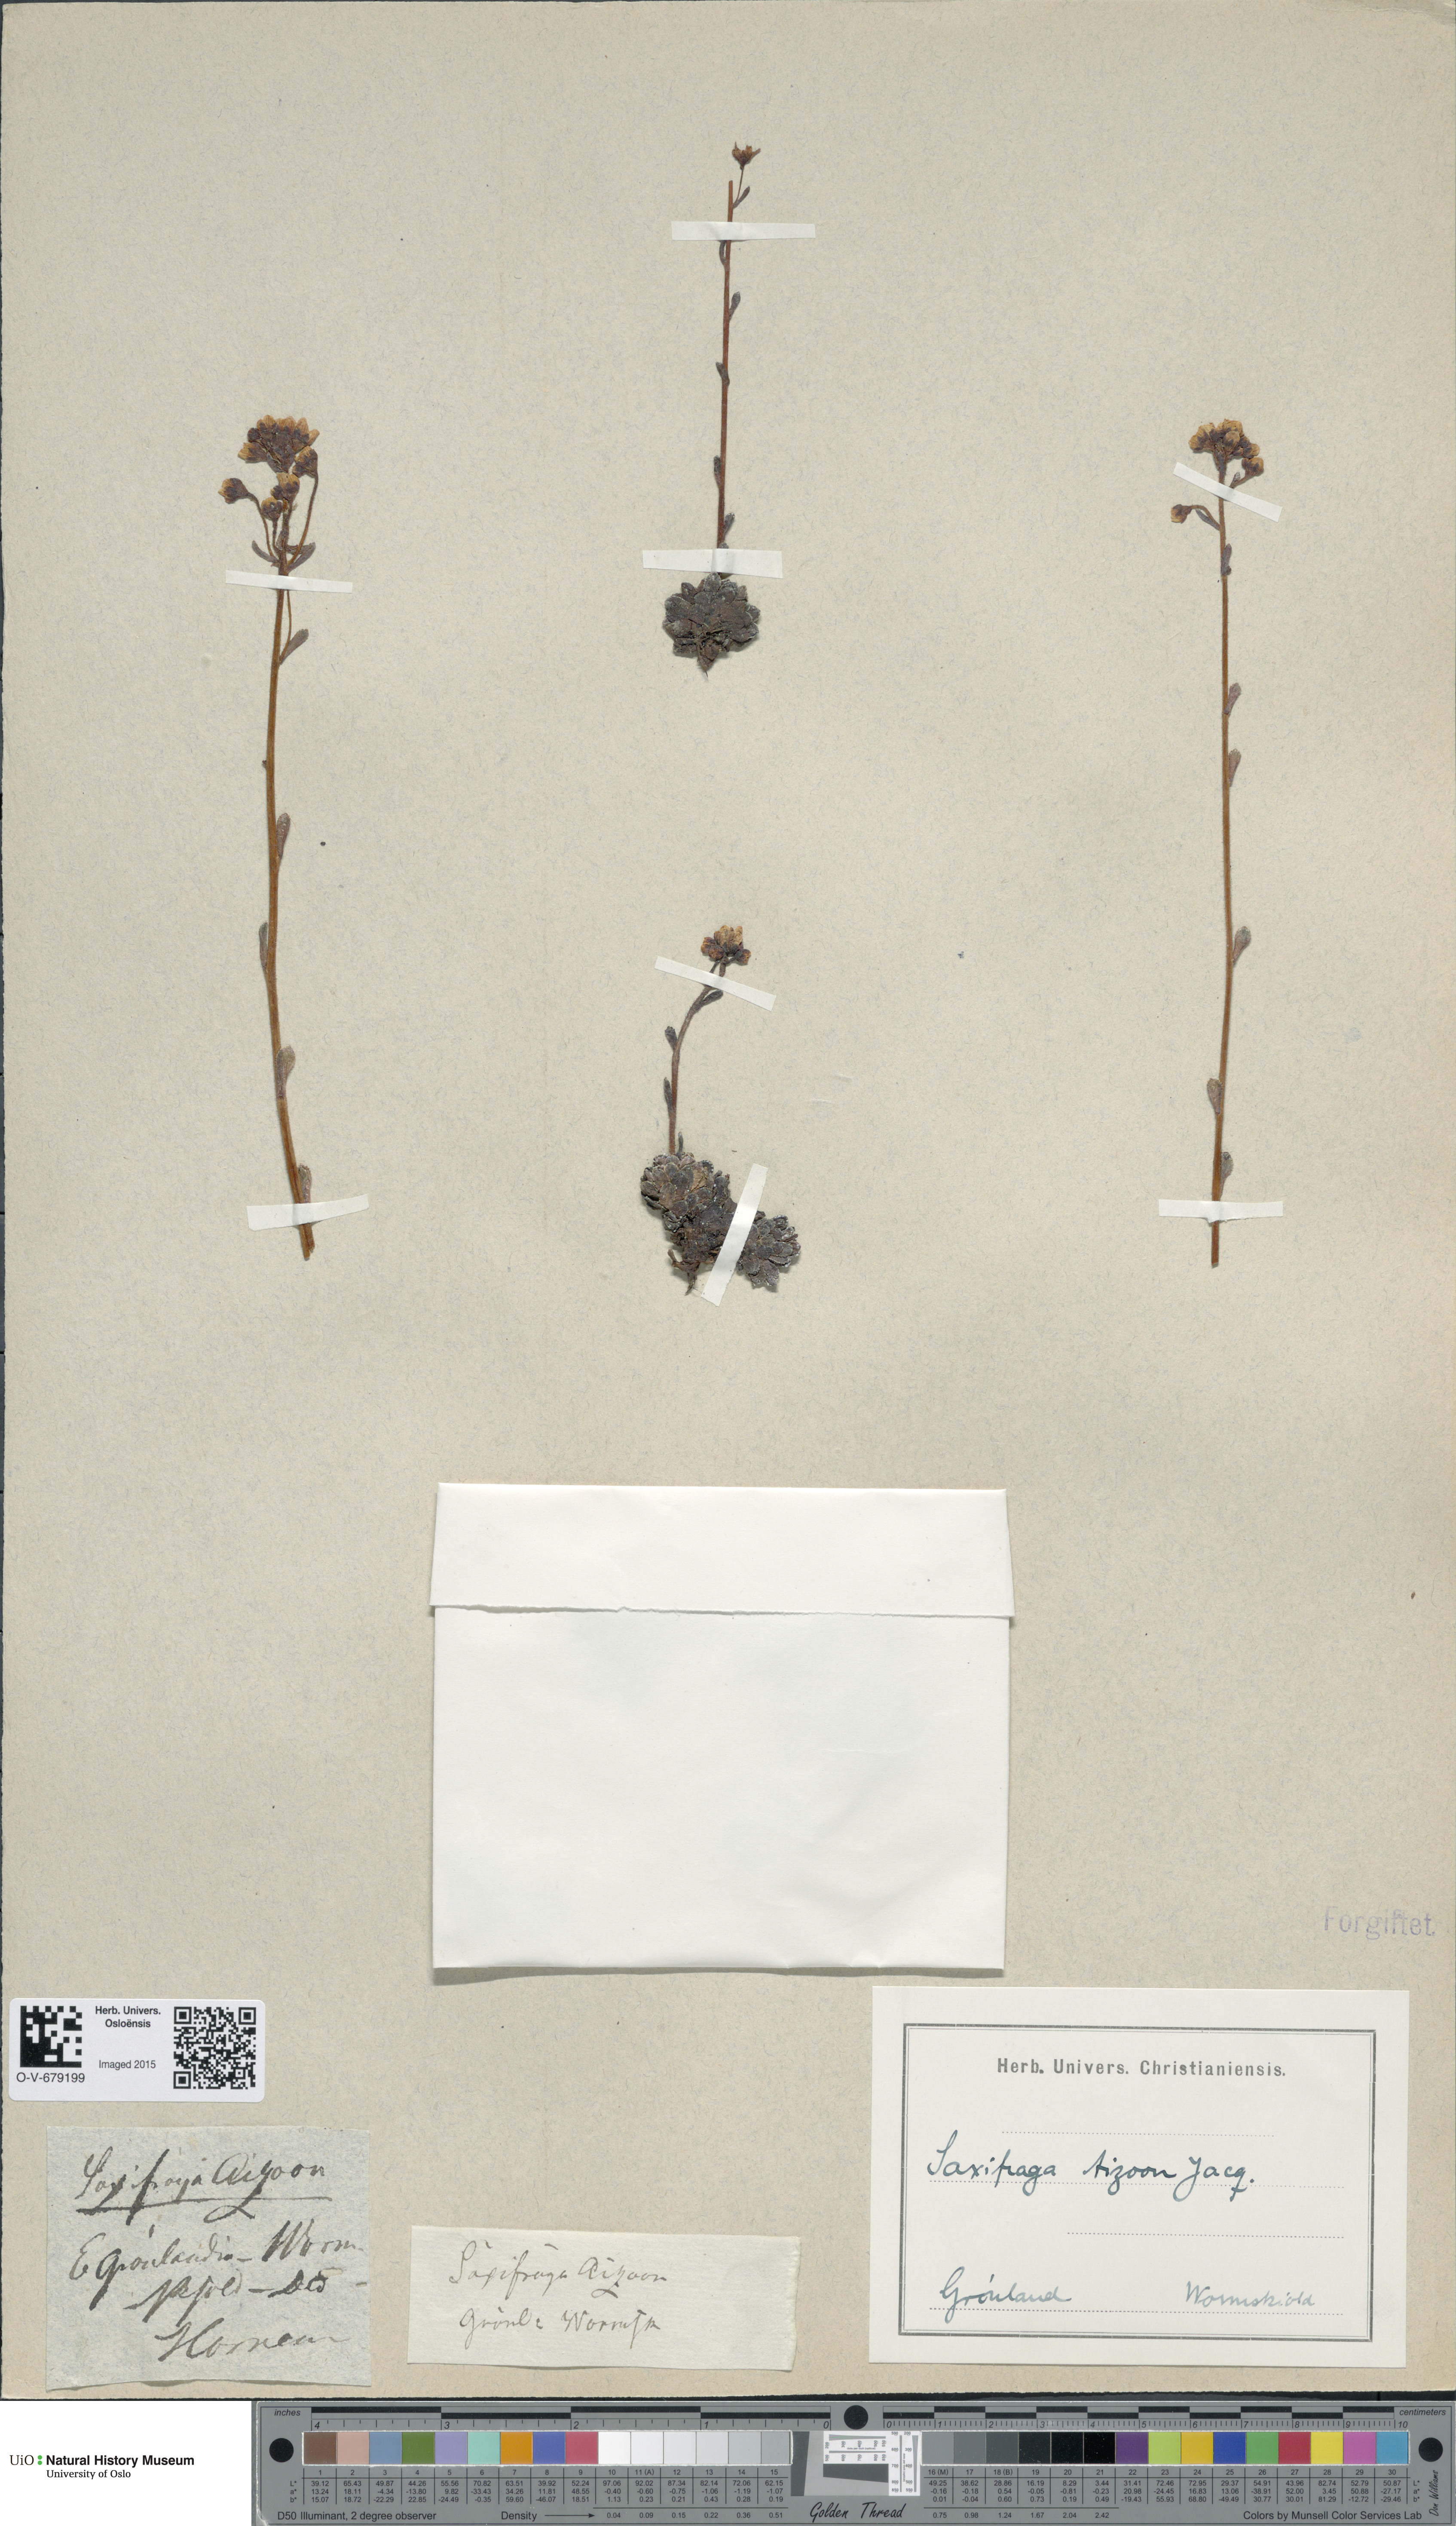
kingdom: Plantae
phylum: Tracheophyta
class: Magnoliopsida
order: Saxifragales
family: Saxifragaceae
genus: Saxifraga
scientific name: Saxifraga paniculata
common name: Livelong saxifrage
